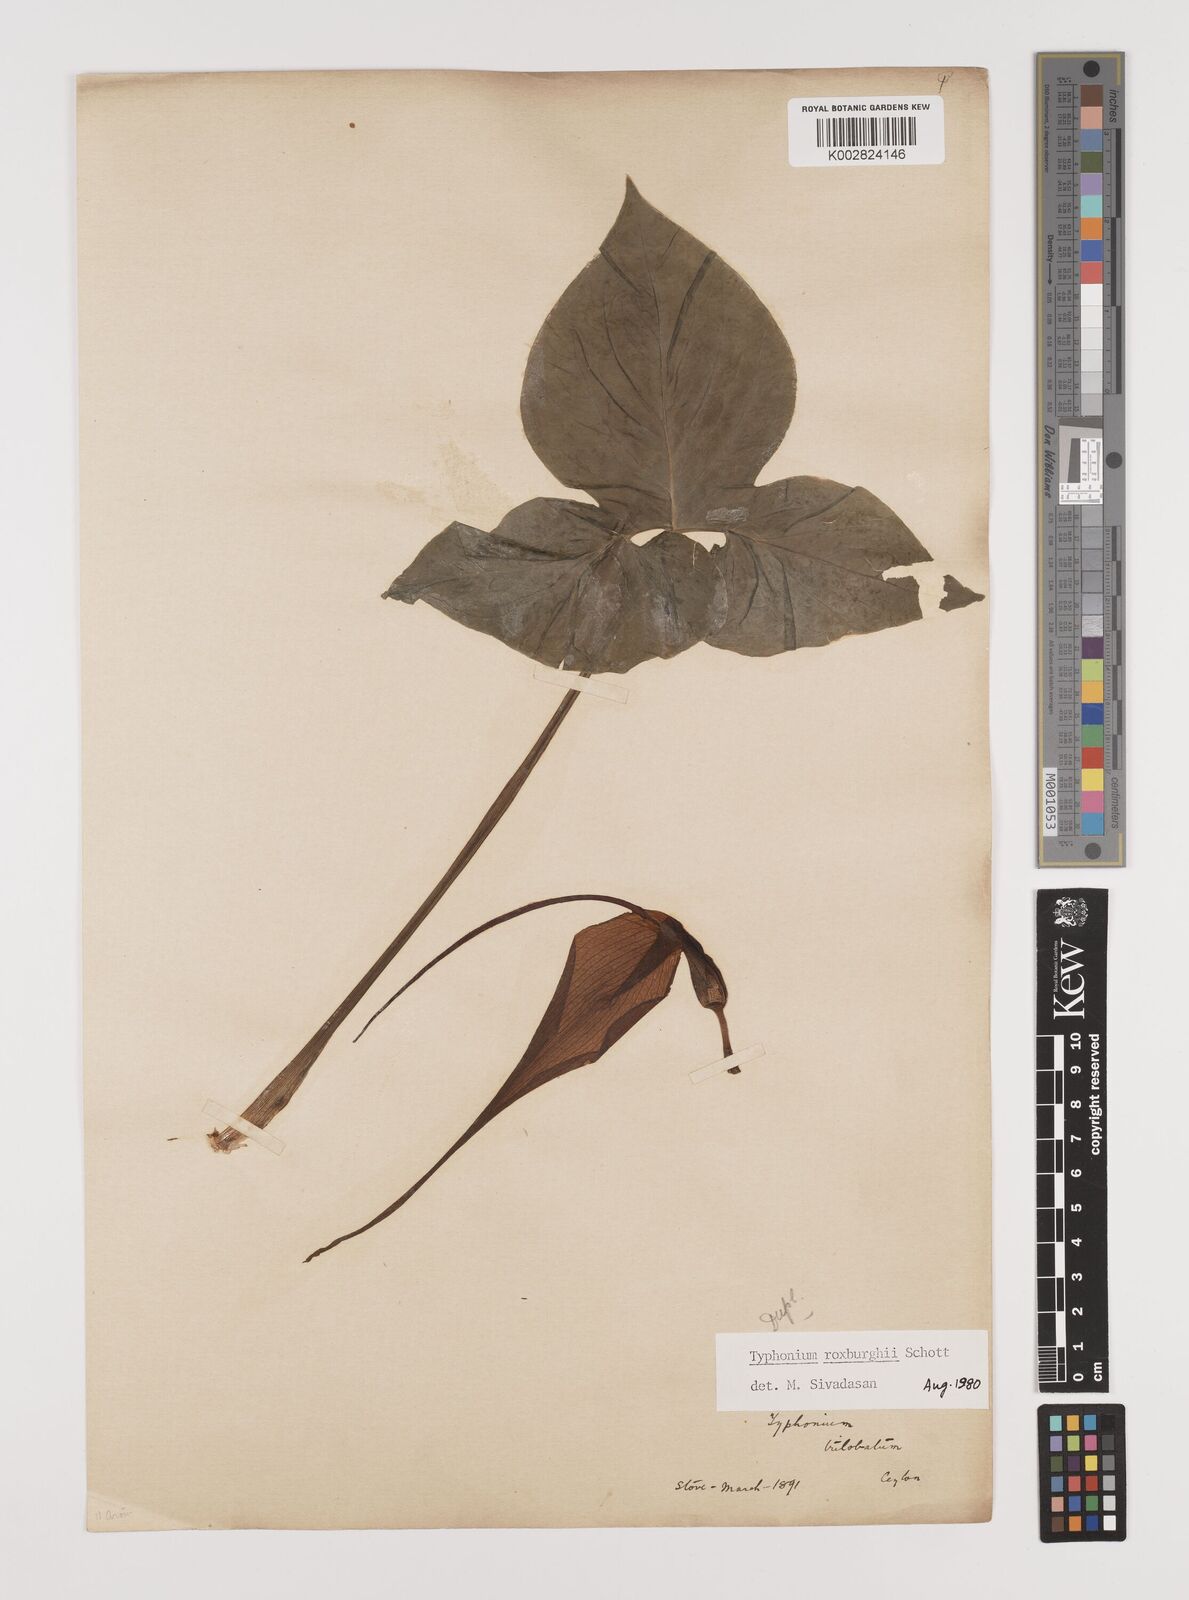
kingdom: Plantae
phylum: Tracheophyta
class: Liliopsida
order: Alismatales
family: Araceae
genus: Typhonium
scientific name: Typhonium roxburghii
